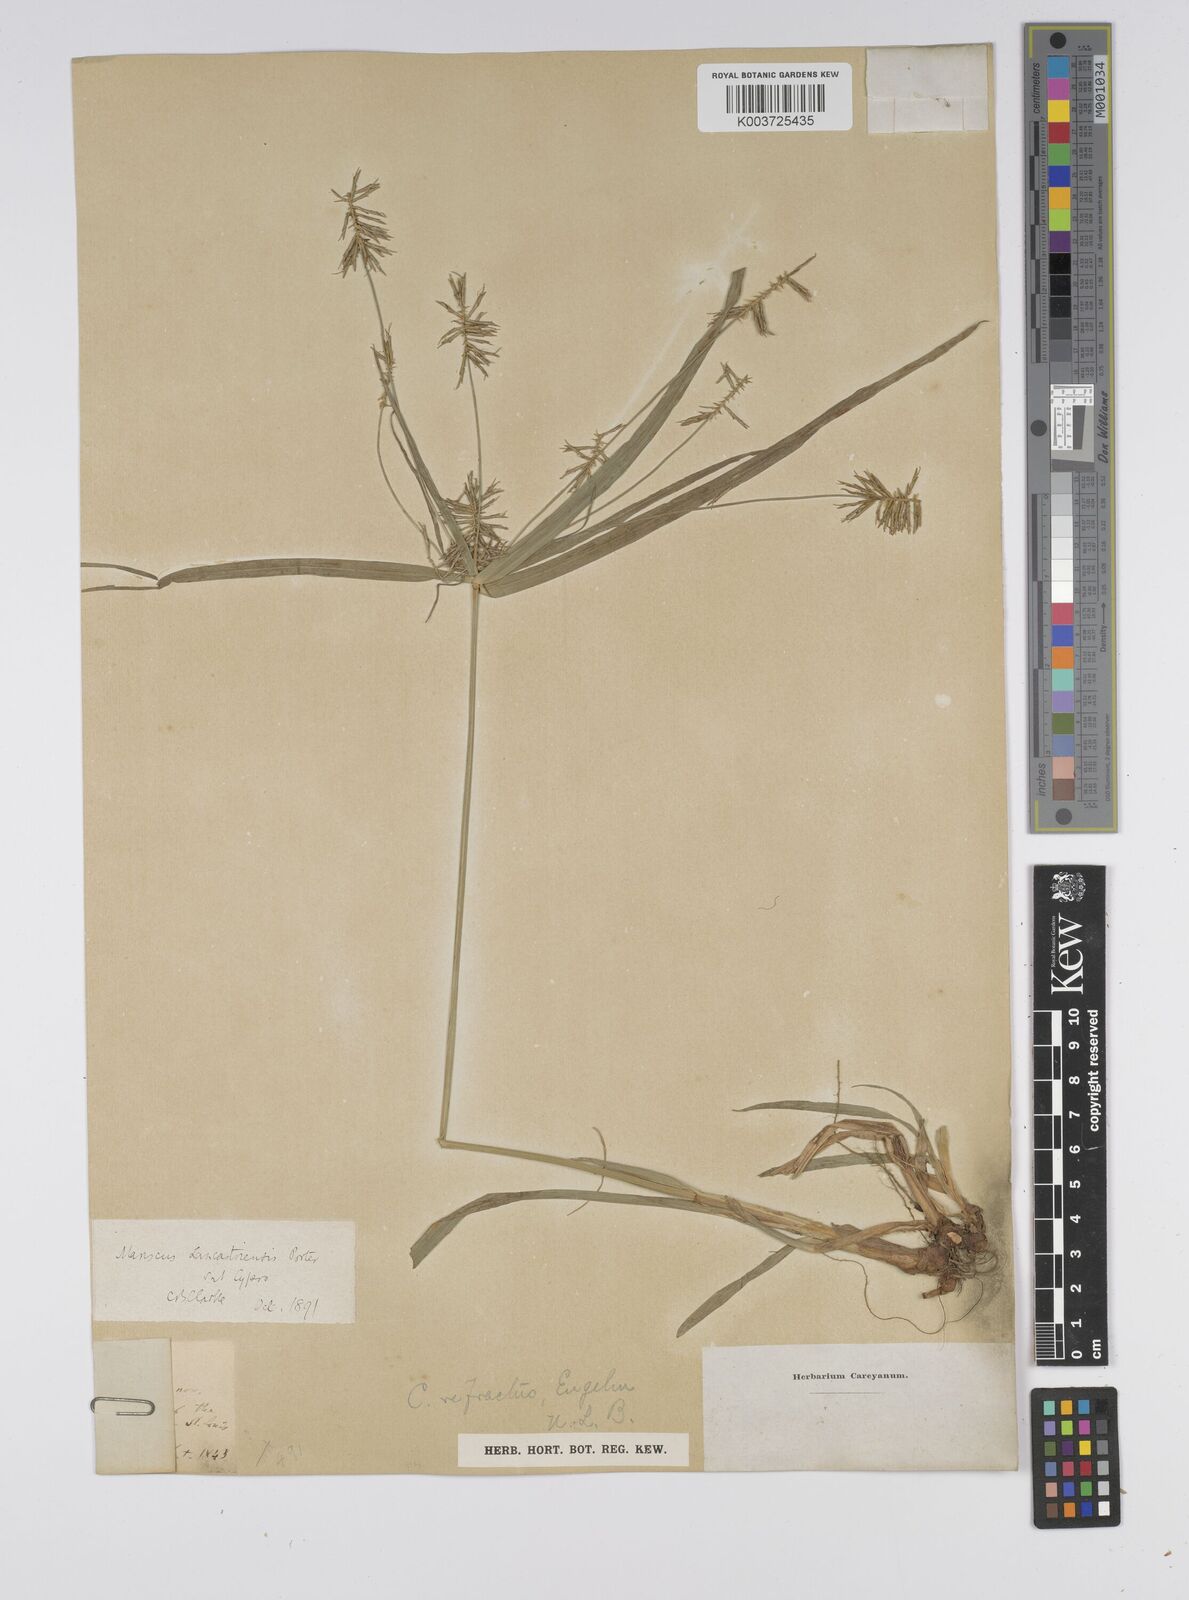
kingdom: Plantae
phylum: Tracheophyta
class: Liliopsida
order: Poales
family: Cyperaceae
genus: Cyperus
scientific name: Cyperus lancastriensis
